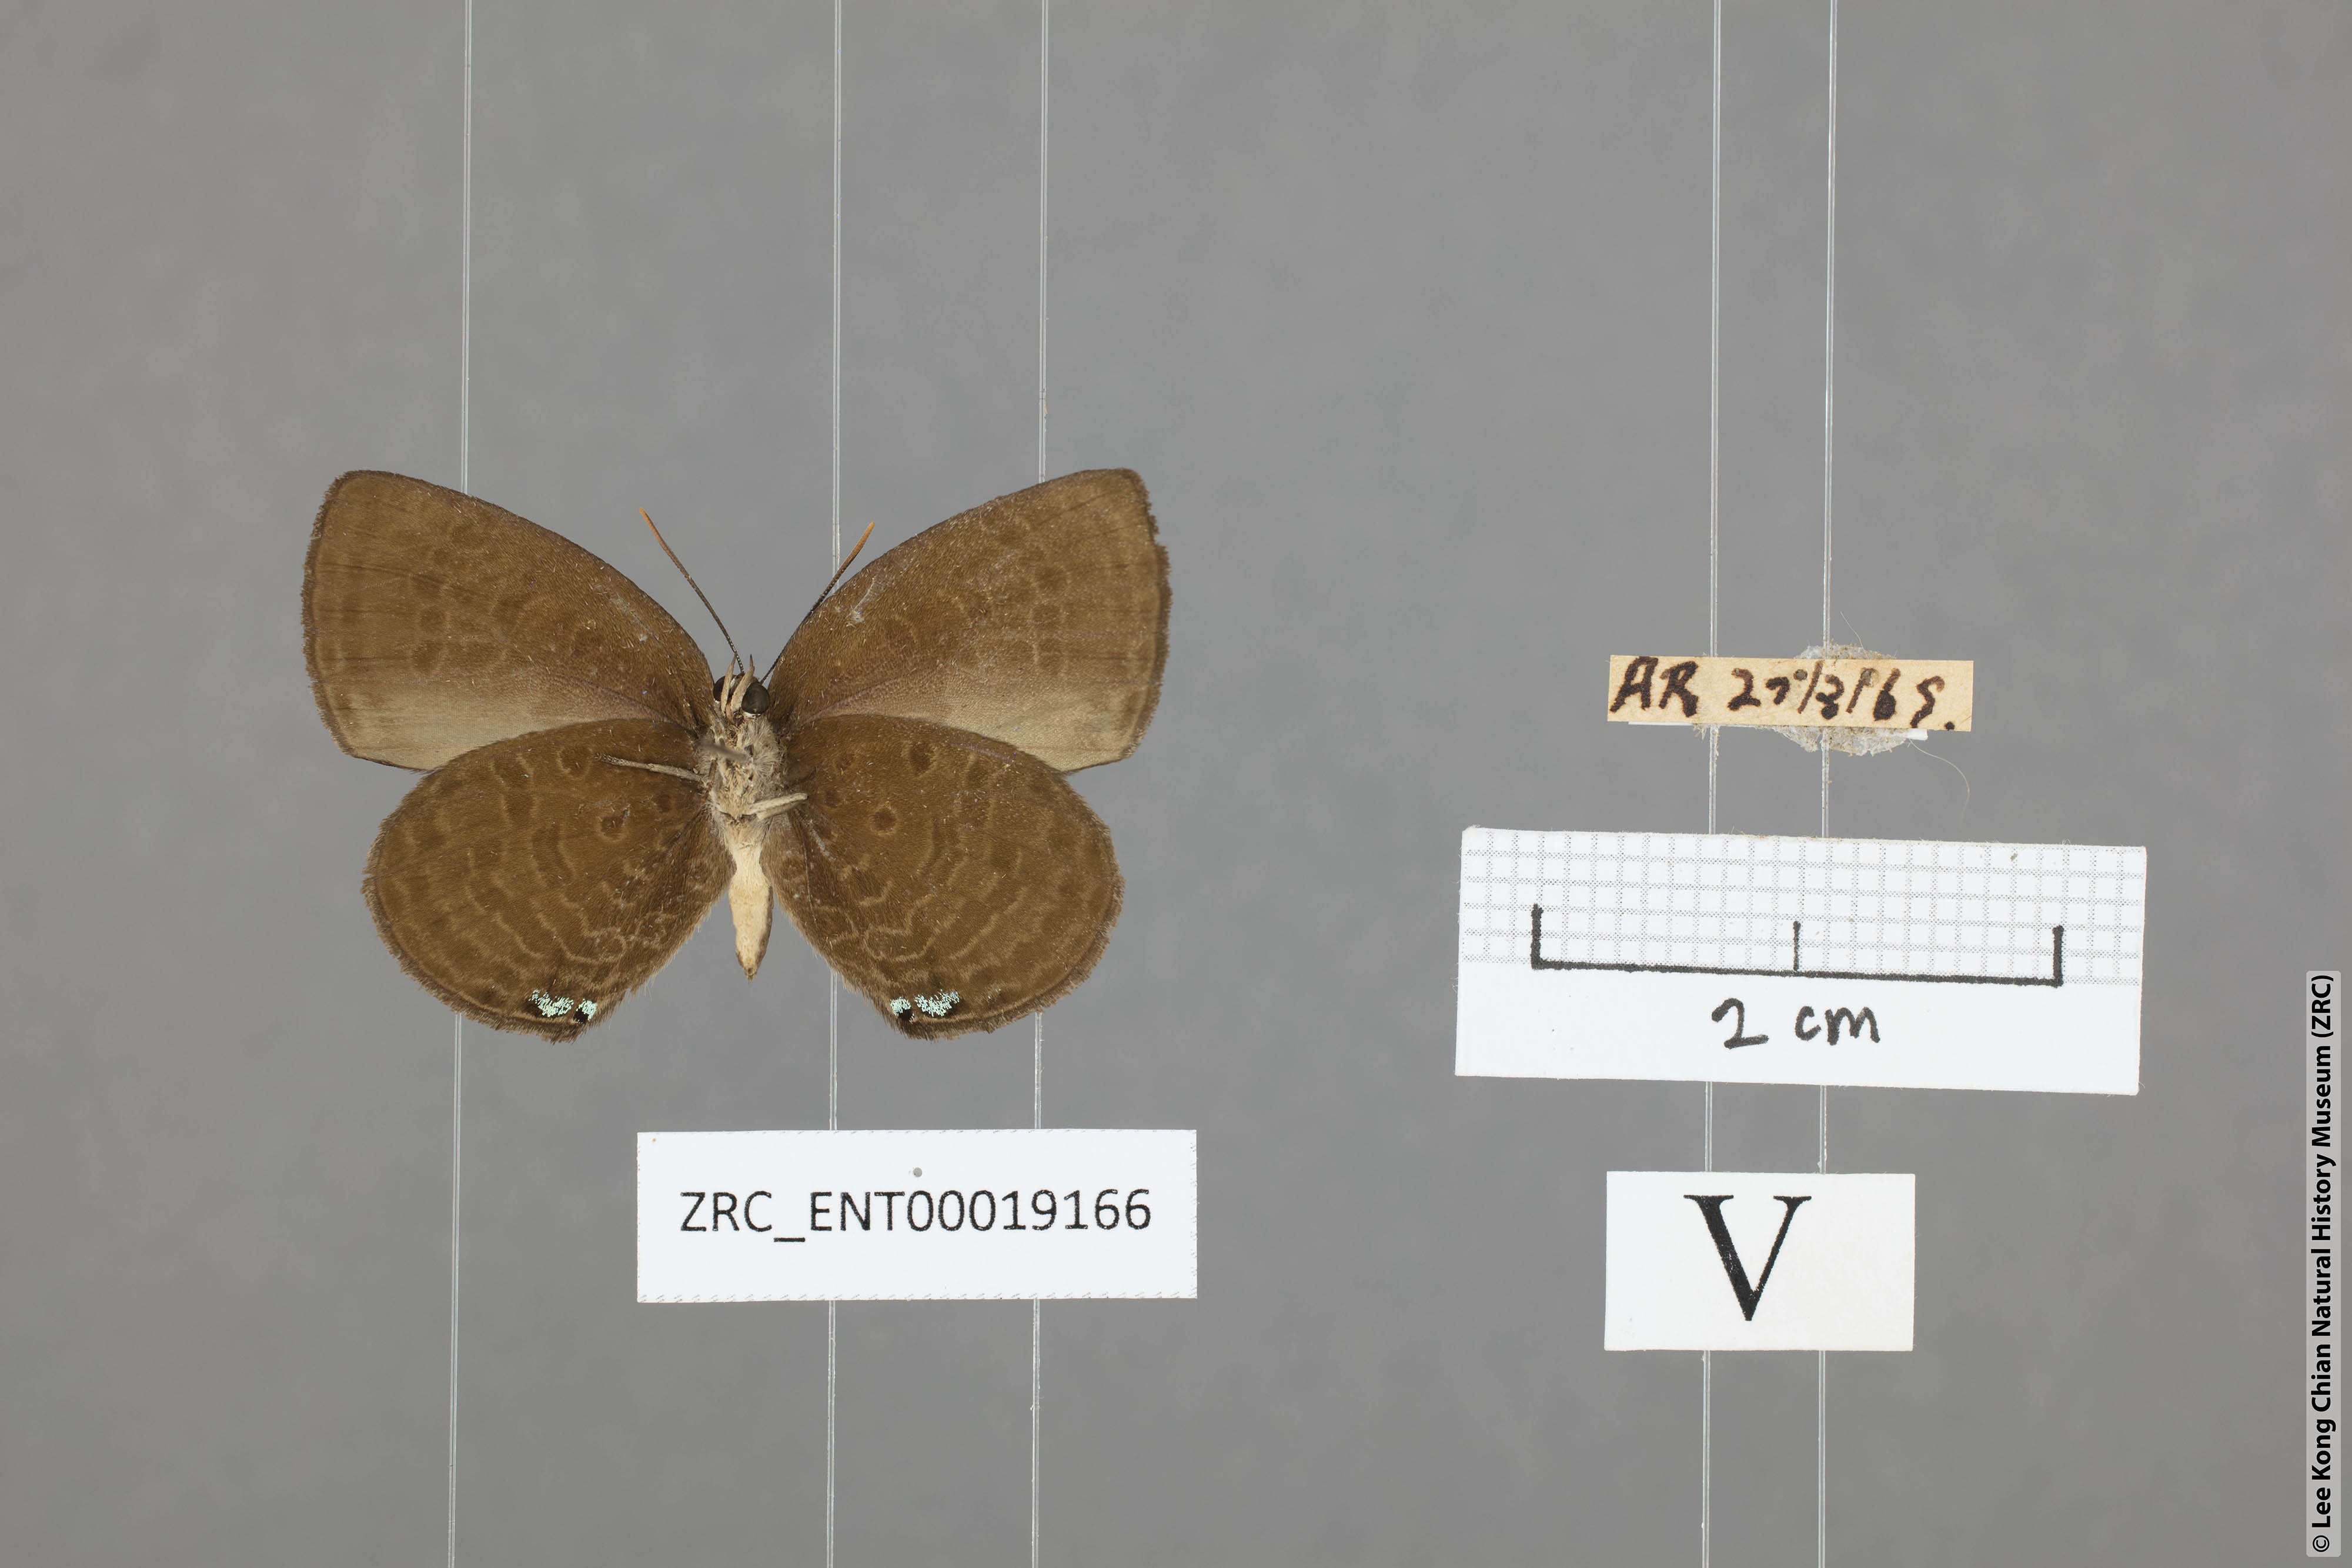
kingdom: Animalia
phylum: Arthropoda
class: Insecta
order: Lepidoptera
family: Lycaenidae
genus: Arhopala
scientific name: Arhopala antimuta
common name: Small tailless oakblue
